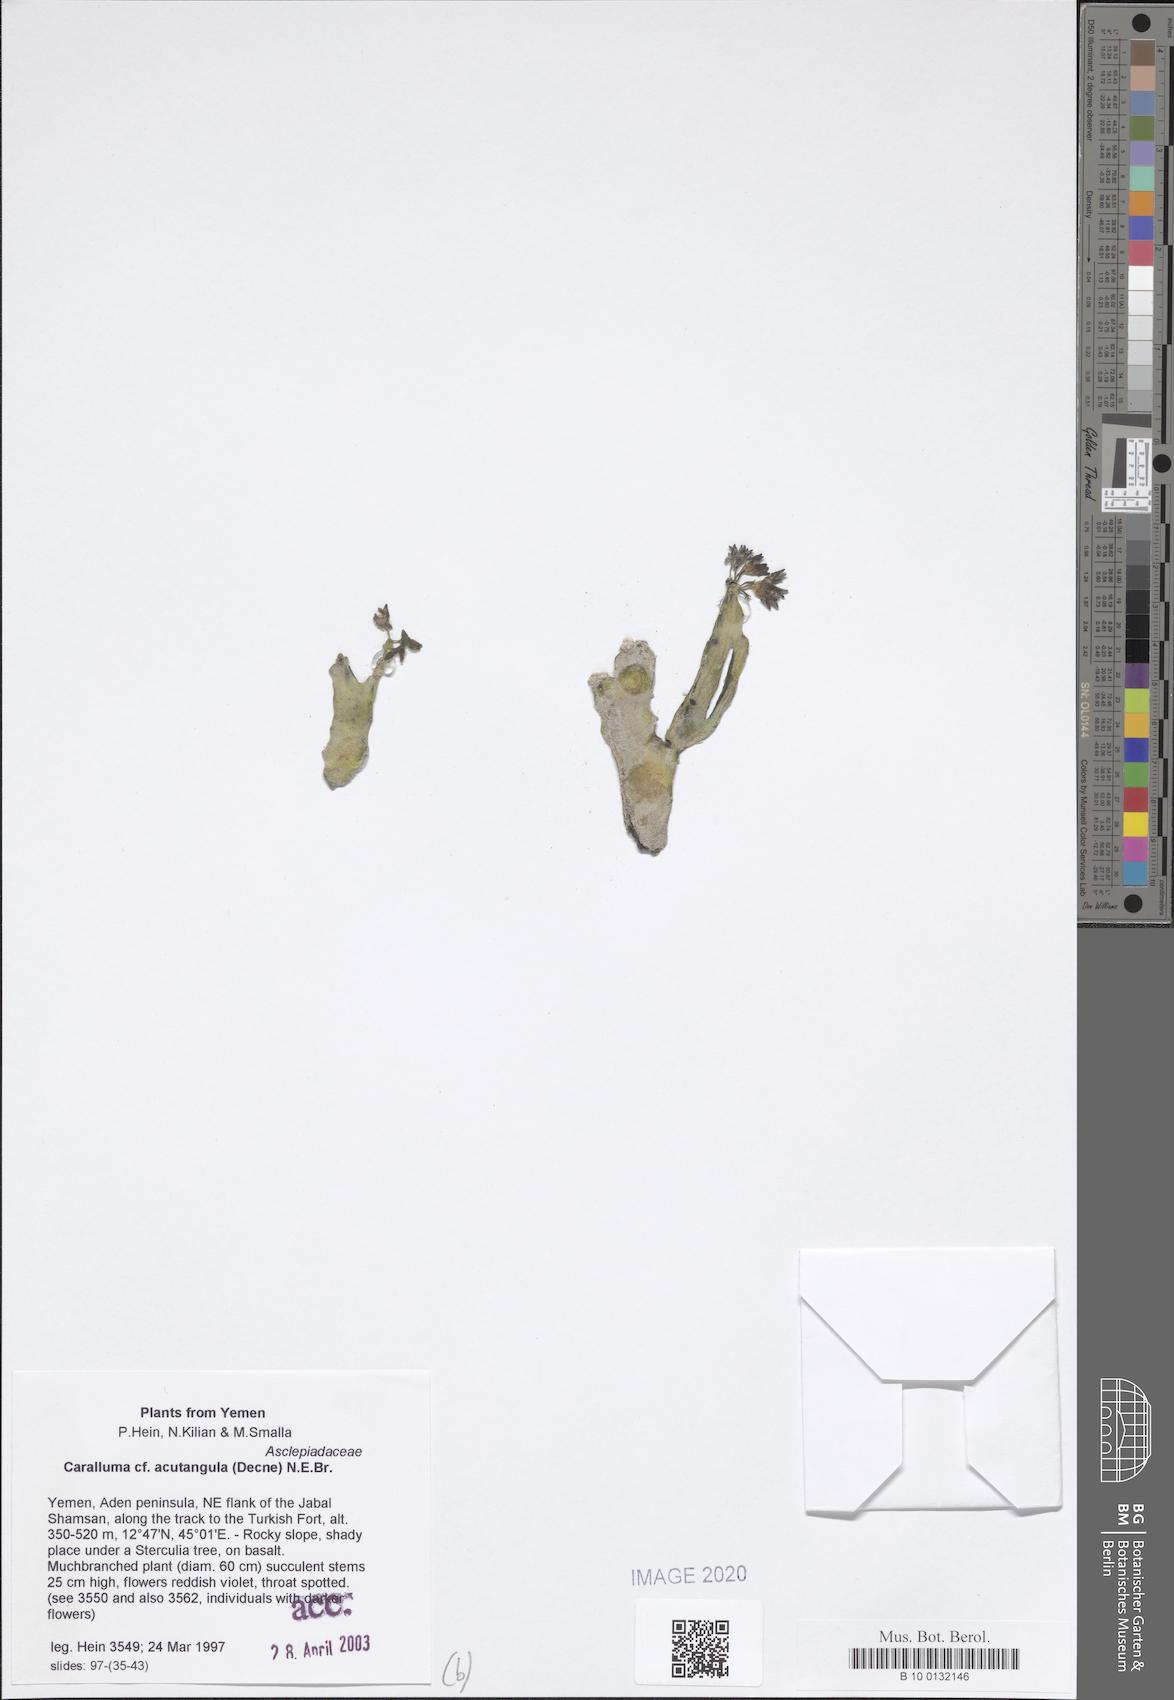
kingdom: Plantae
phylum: Tracheophyta
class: Magnoliopsida
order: Gentianales
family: Apocynaceae
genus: Ceropegia
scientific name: Ceropegia adenensis
